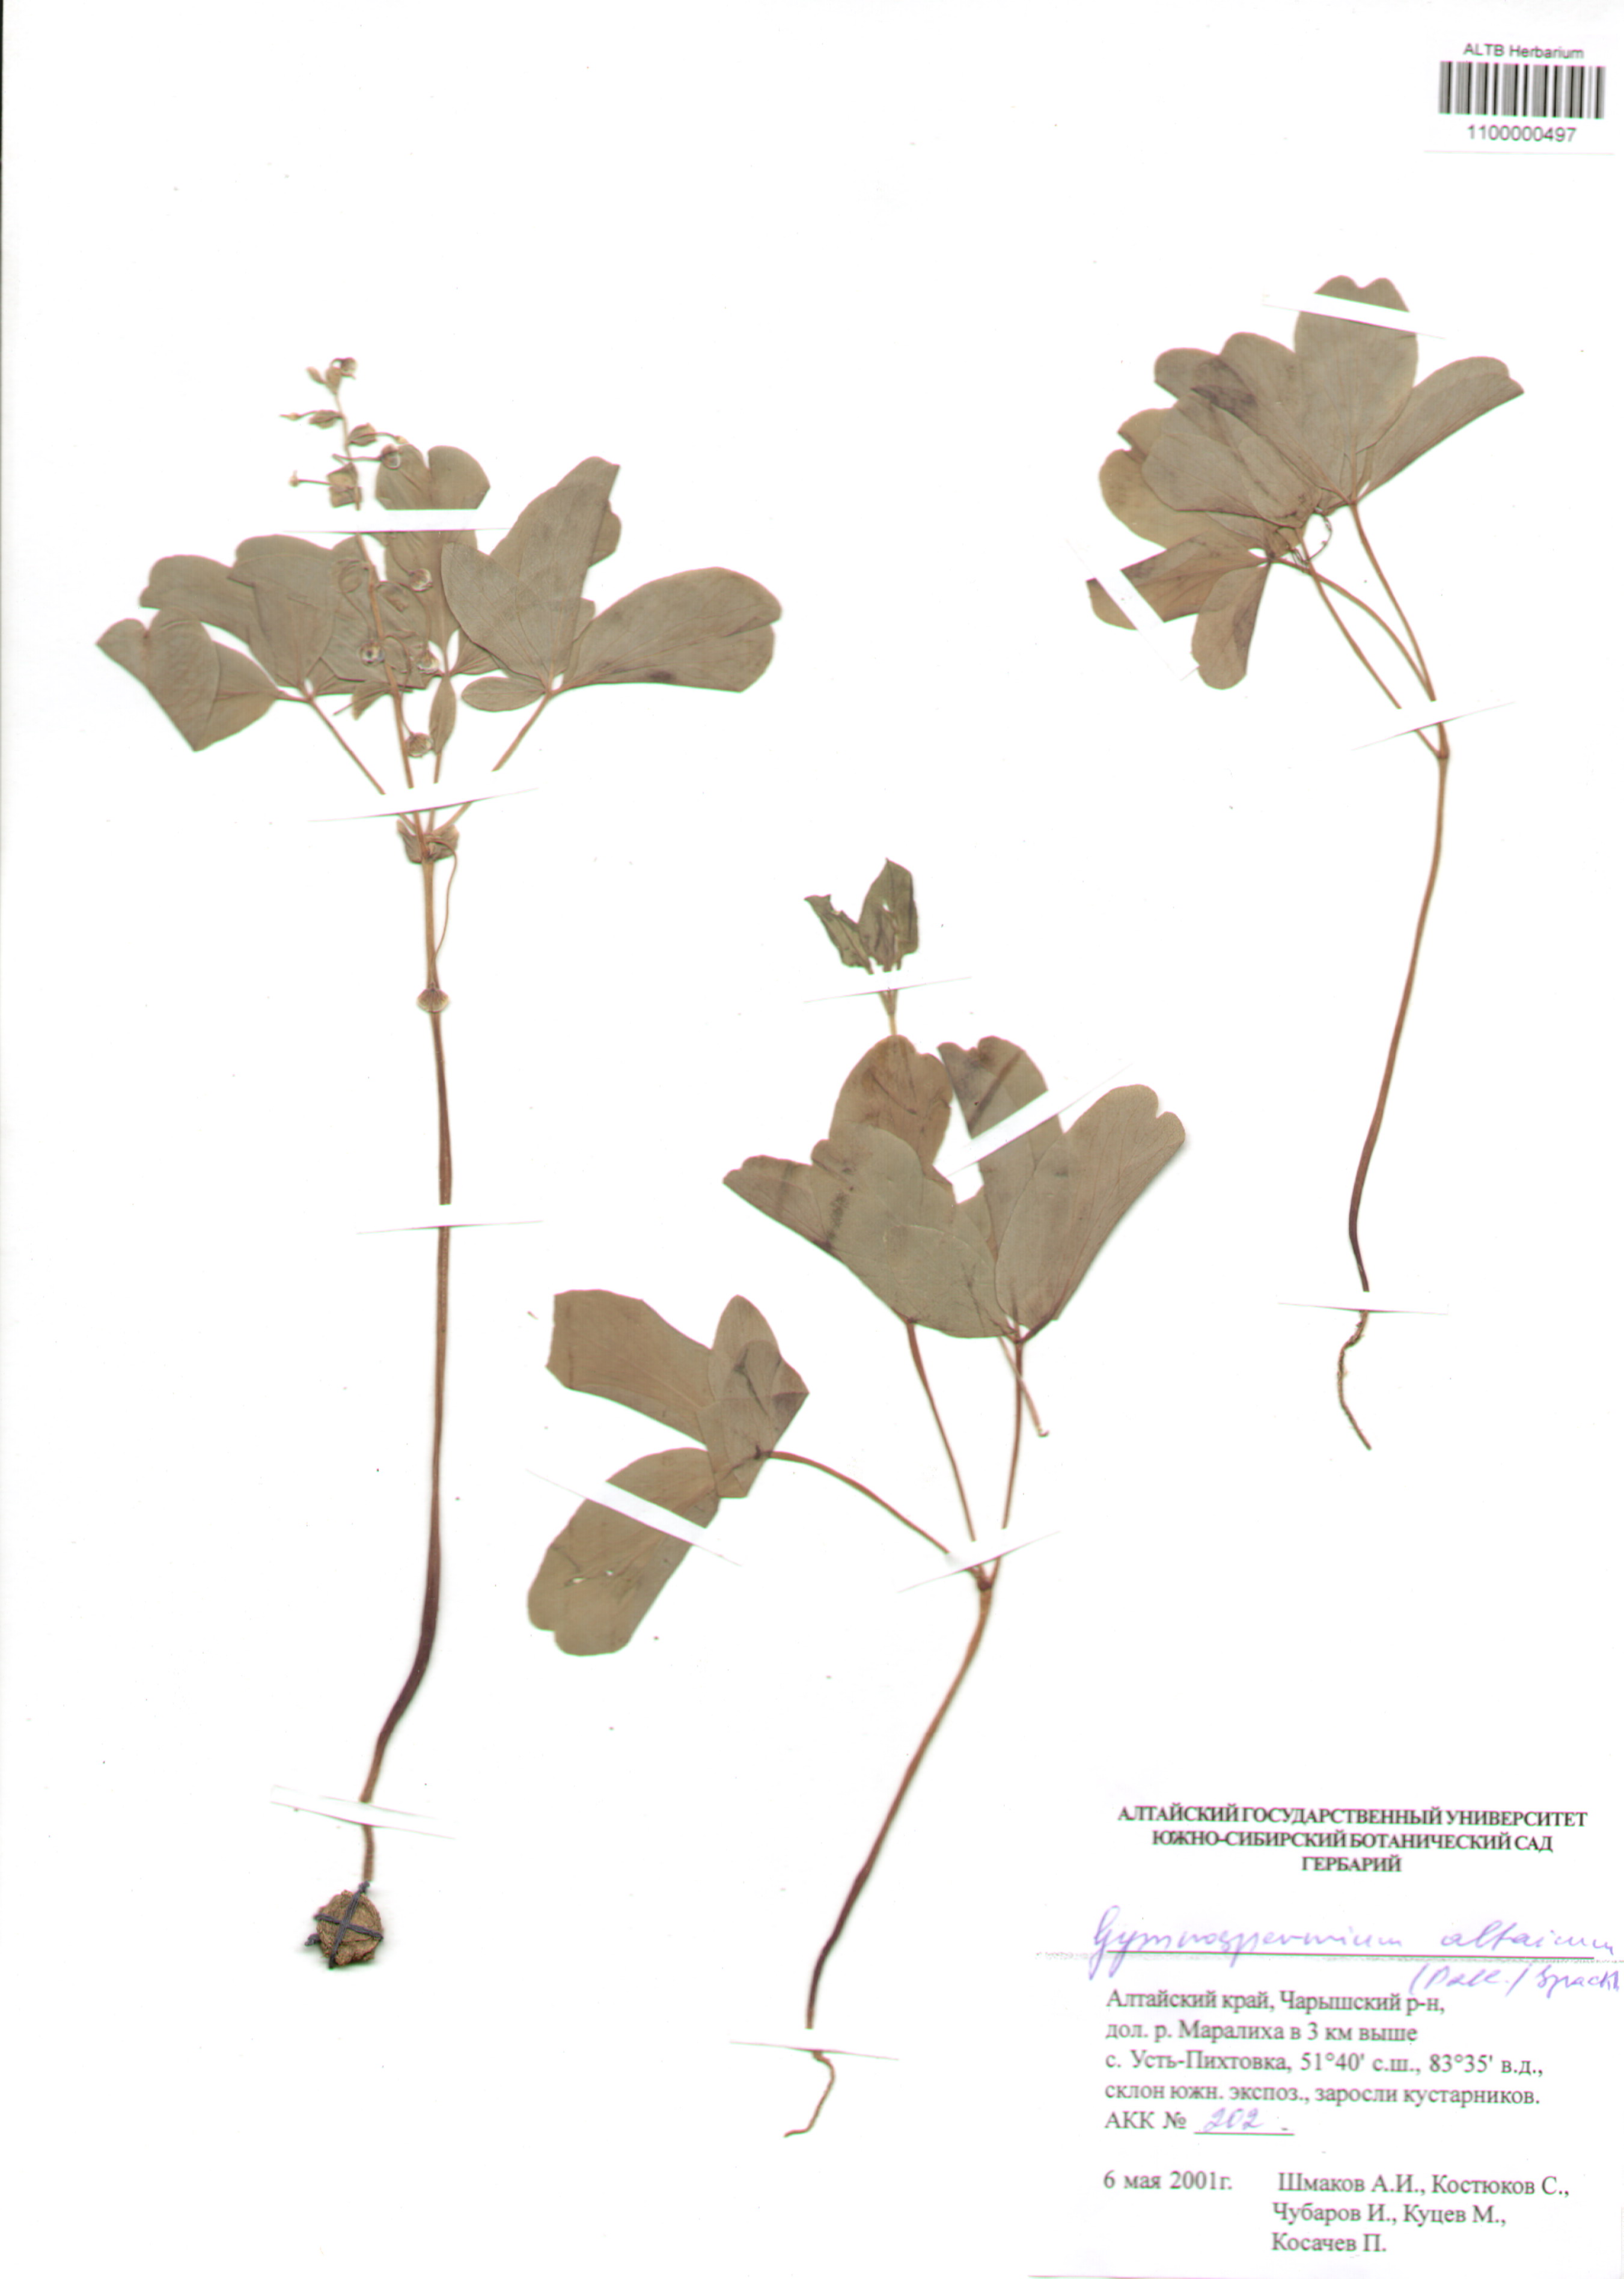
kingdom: Plantae
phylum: Tracheophyta
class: Magnoliopsida
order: Ranunculales
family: Berberidaceae
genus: Gymnospermium
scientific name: Gymnospermium altaicum
